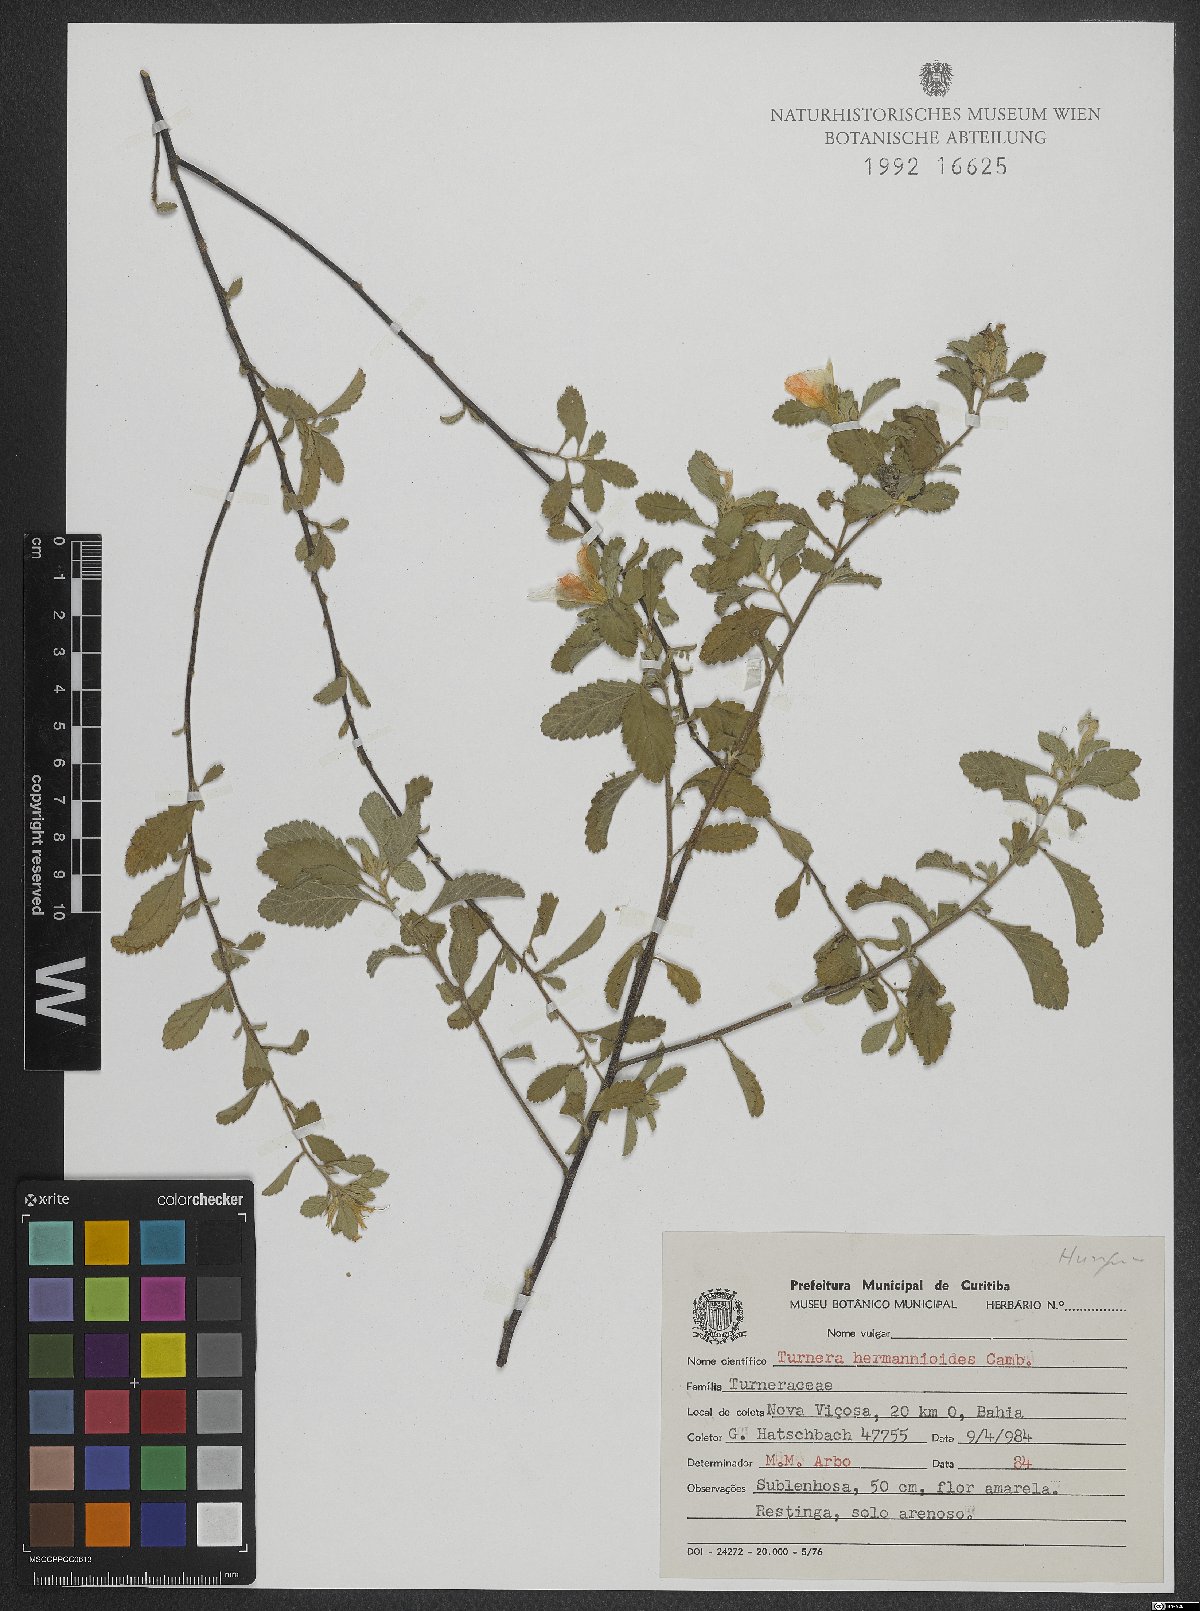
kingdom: Plantae
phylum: Tracheophyta
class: Magnoliopsida
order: Malpighiales
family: Turneraceae
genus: Turnera
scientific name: Turnera hermannioides
